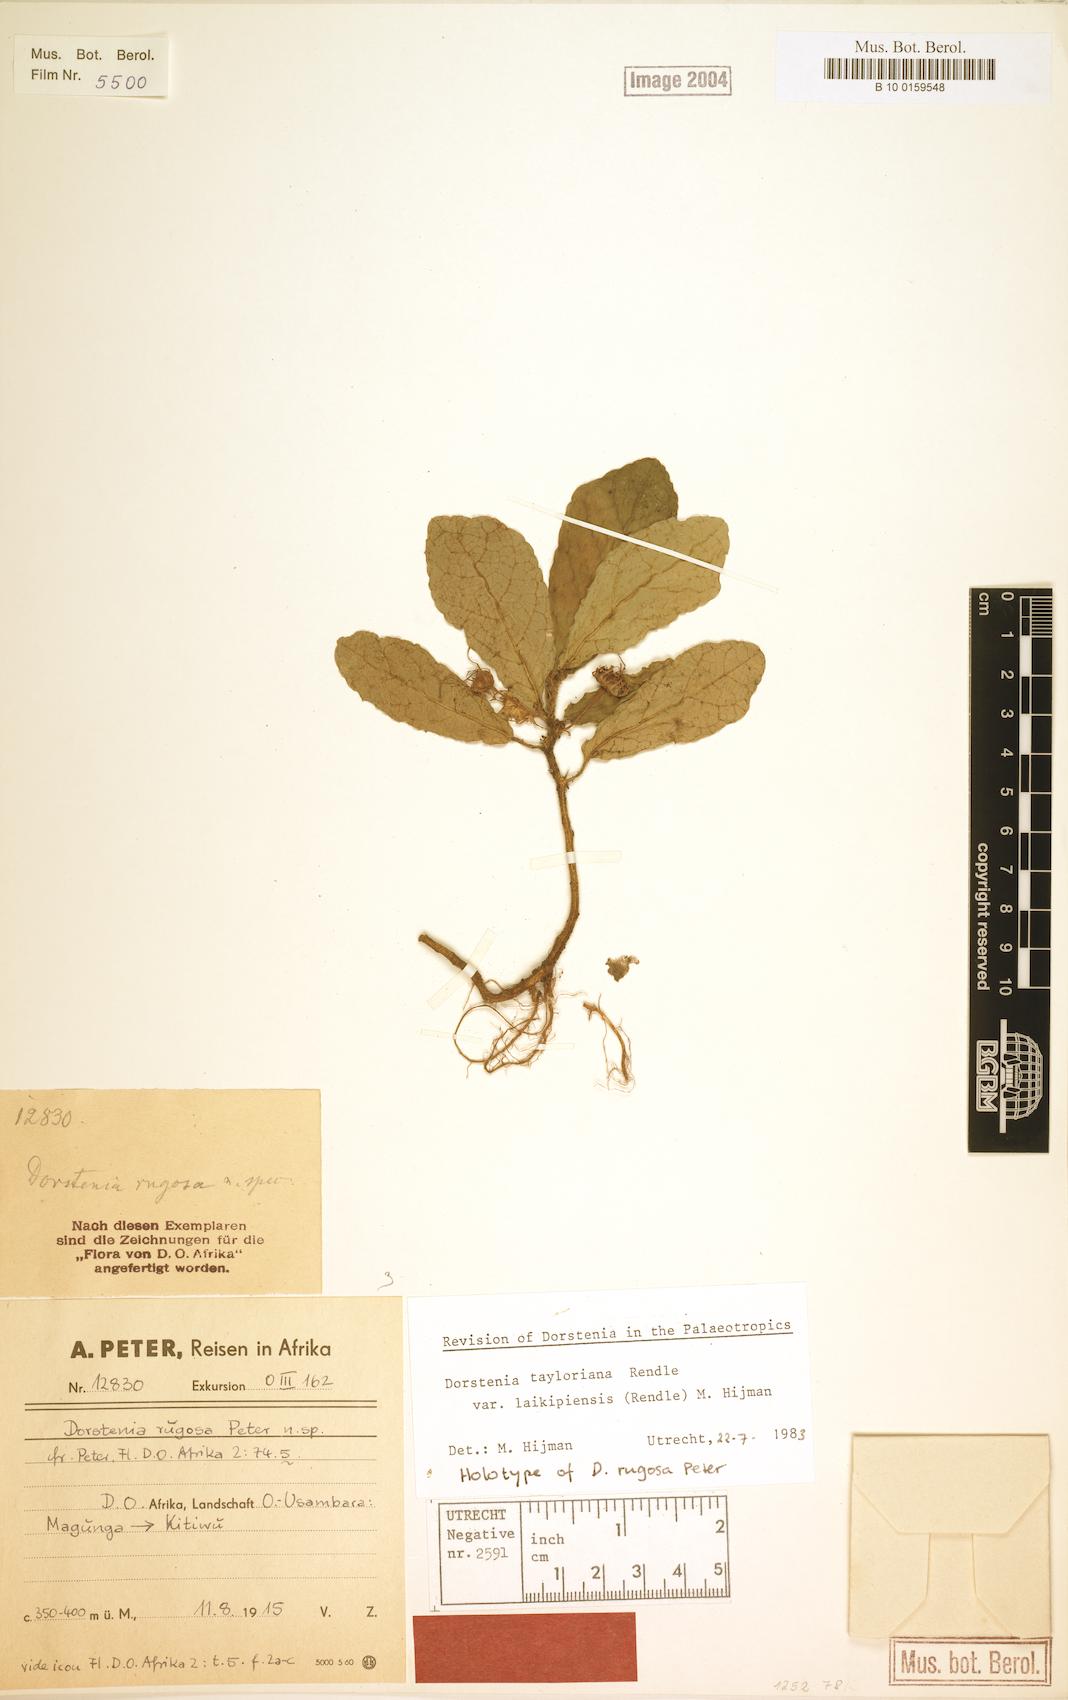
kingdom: Plantae
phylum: Tracheophyta
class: Magnoliopsida
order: Rosales
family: Moraceae
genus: Dorstenia
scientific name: Dorstenia tayloriana
